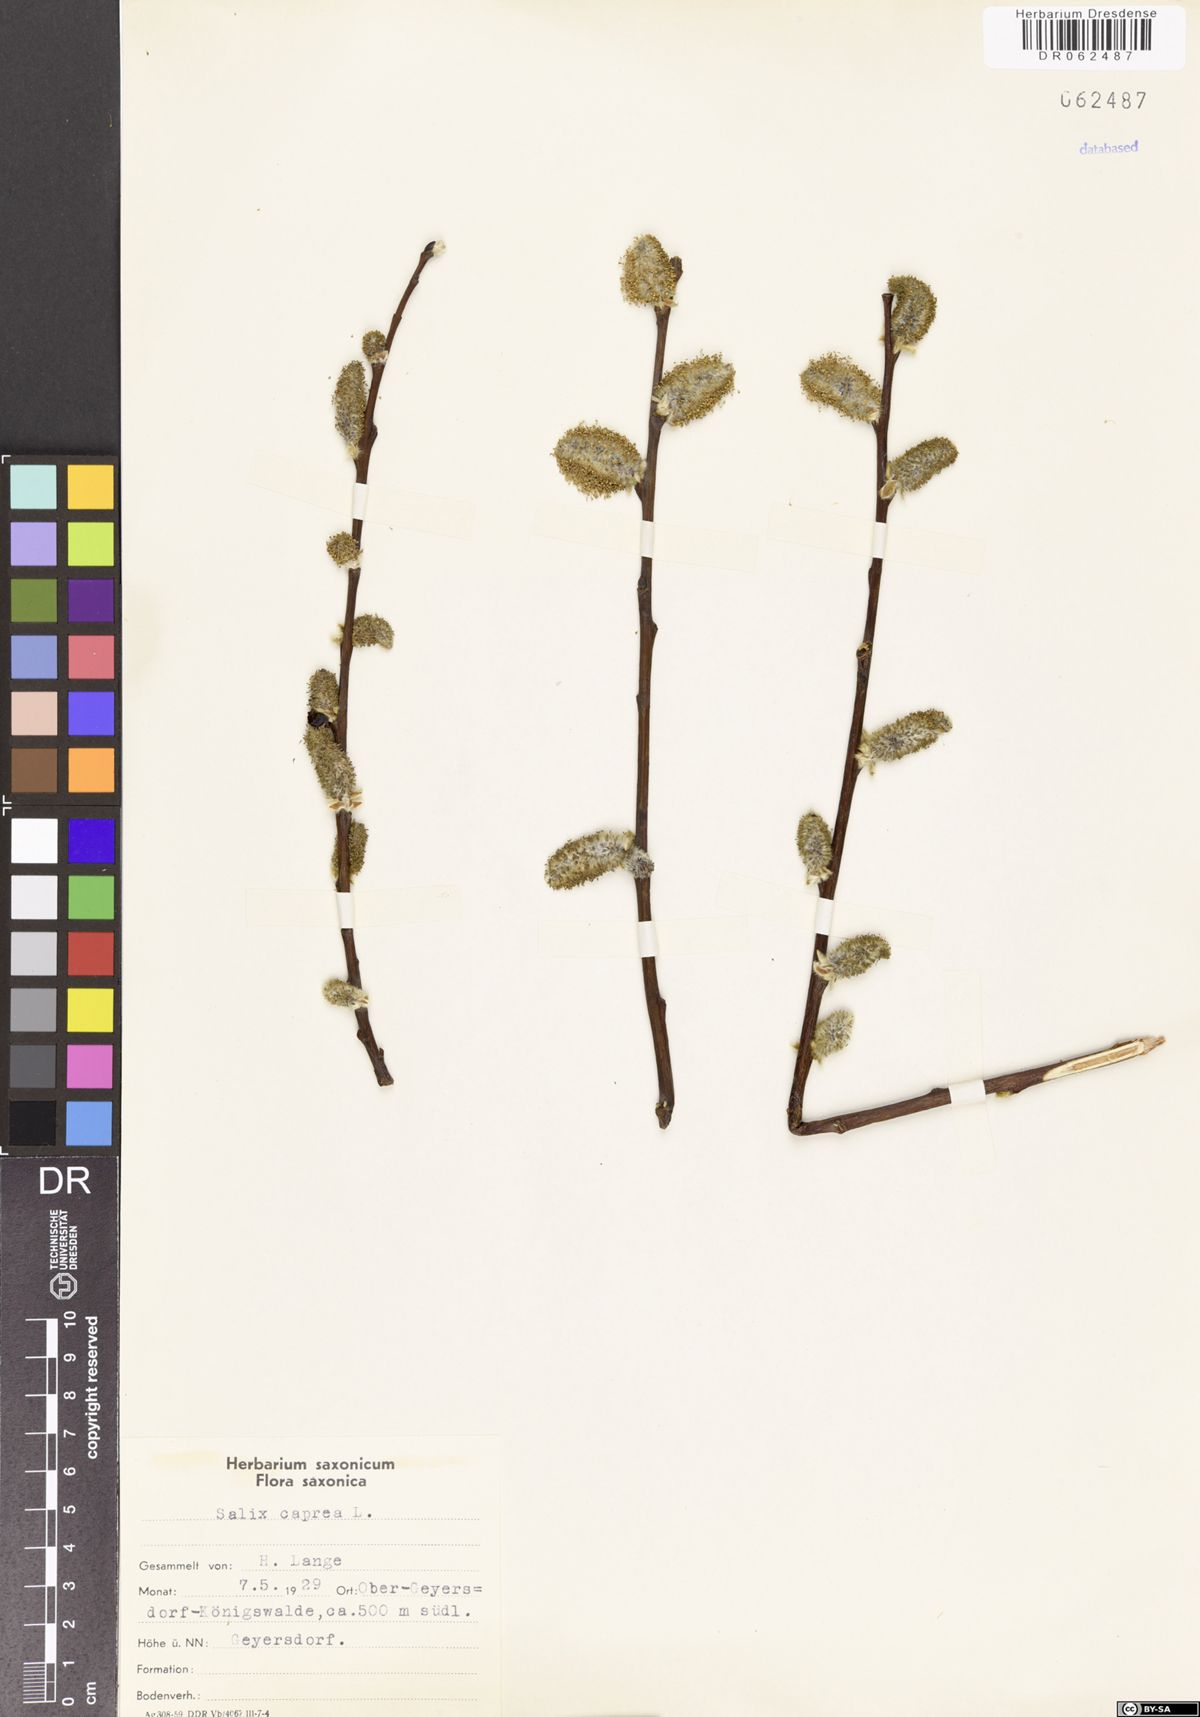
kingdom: Plantae
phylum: Tracheophyta
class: Magnoliopsida
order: Malpighiales
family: Salicaceae
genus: Salix
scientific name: Salix caprea
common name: Goat willow
